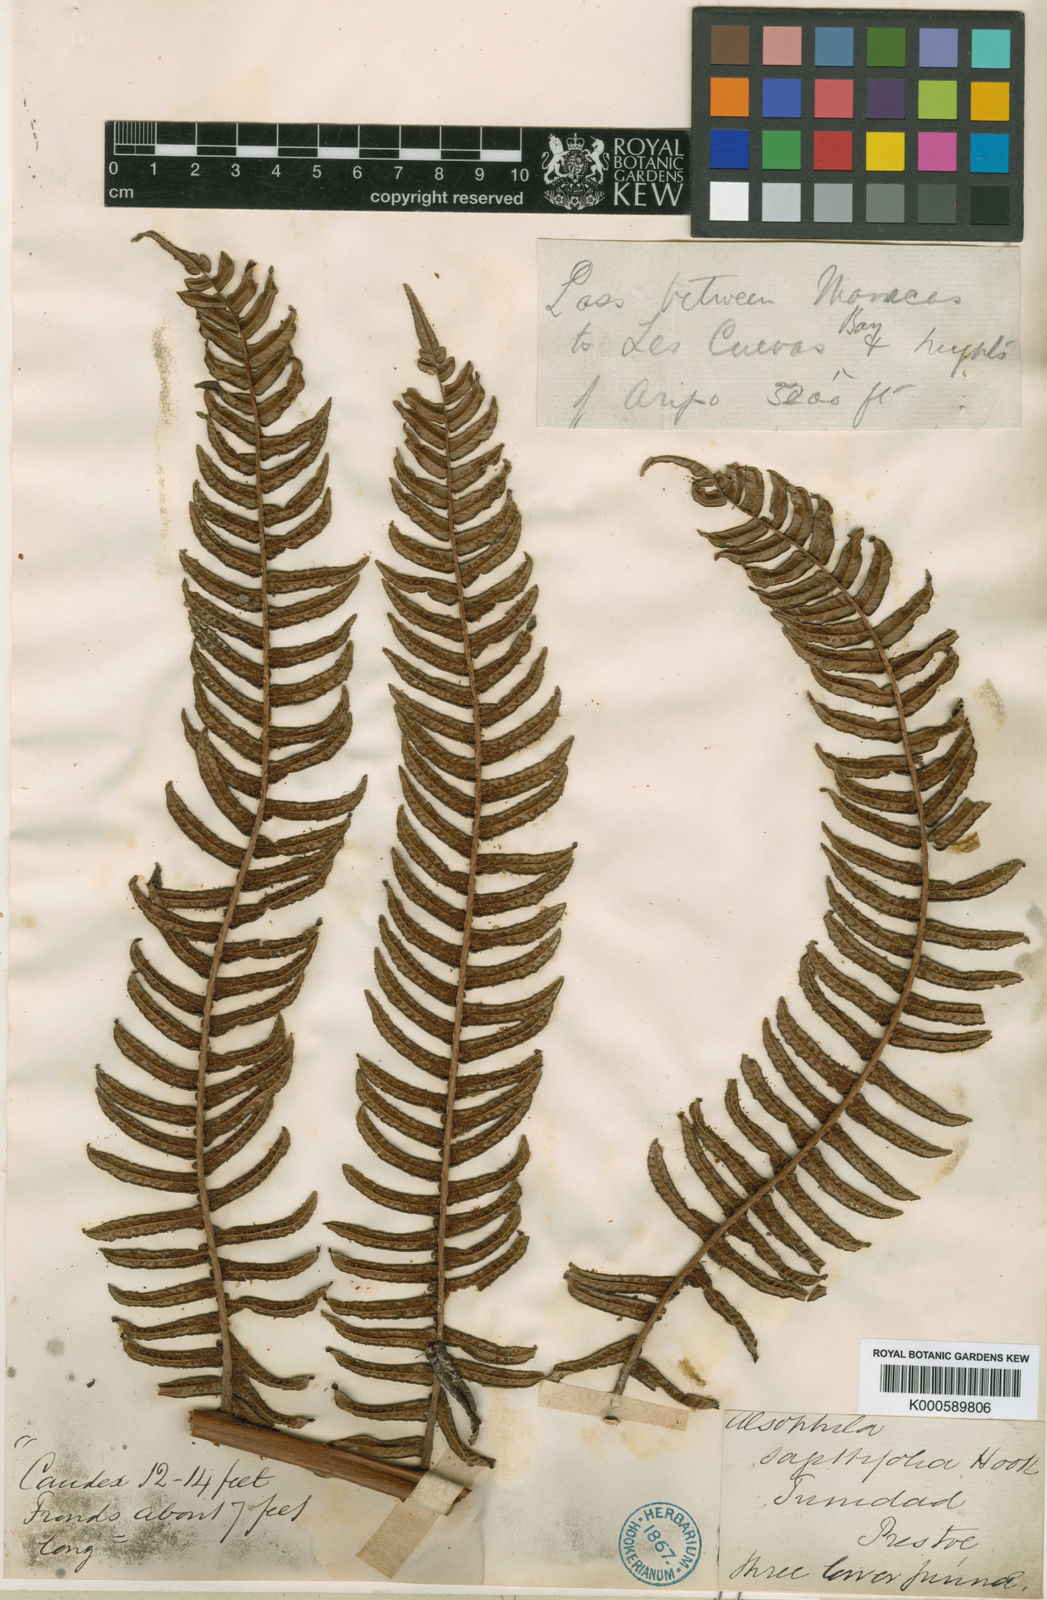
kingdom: Plantae
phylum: Tracheophyta
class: Polypodiopsida
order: Cyatheales
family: Cyatheaceae
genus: Cyathea
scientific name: Cyathea sagittifolia
